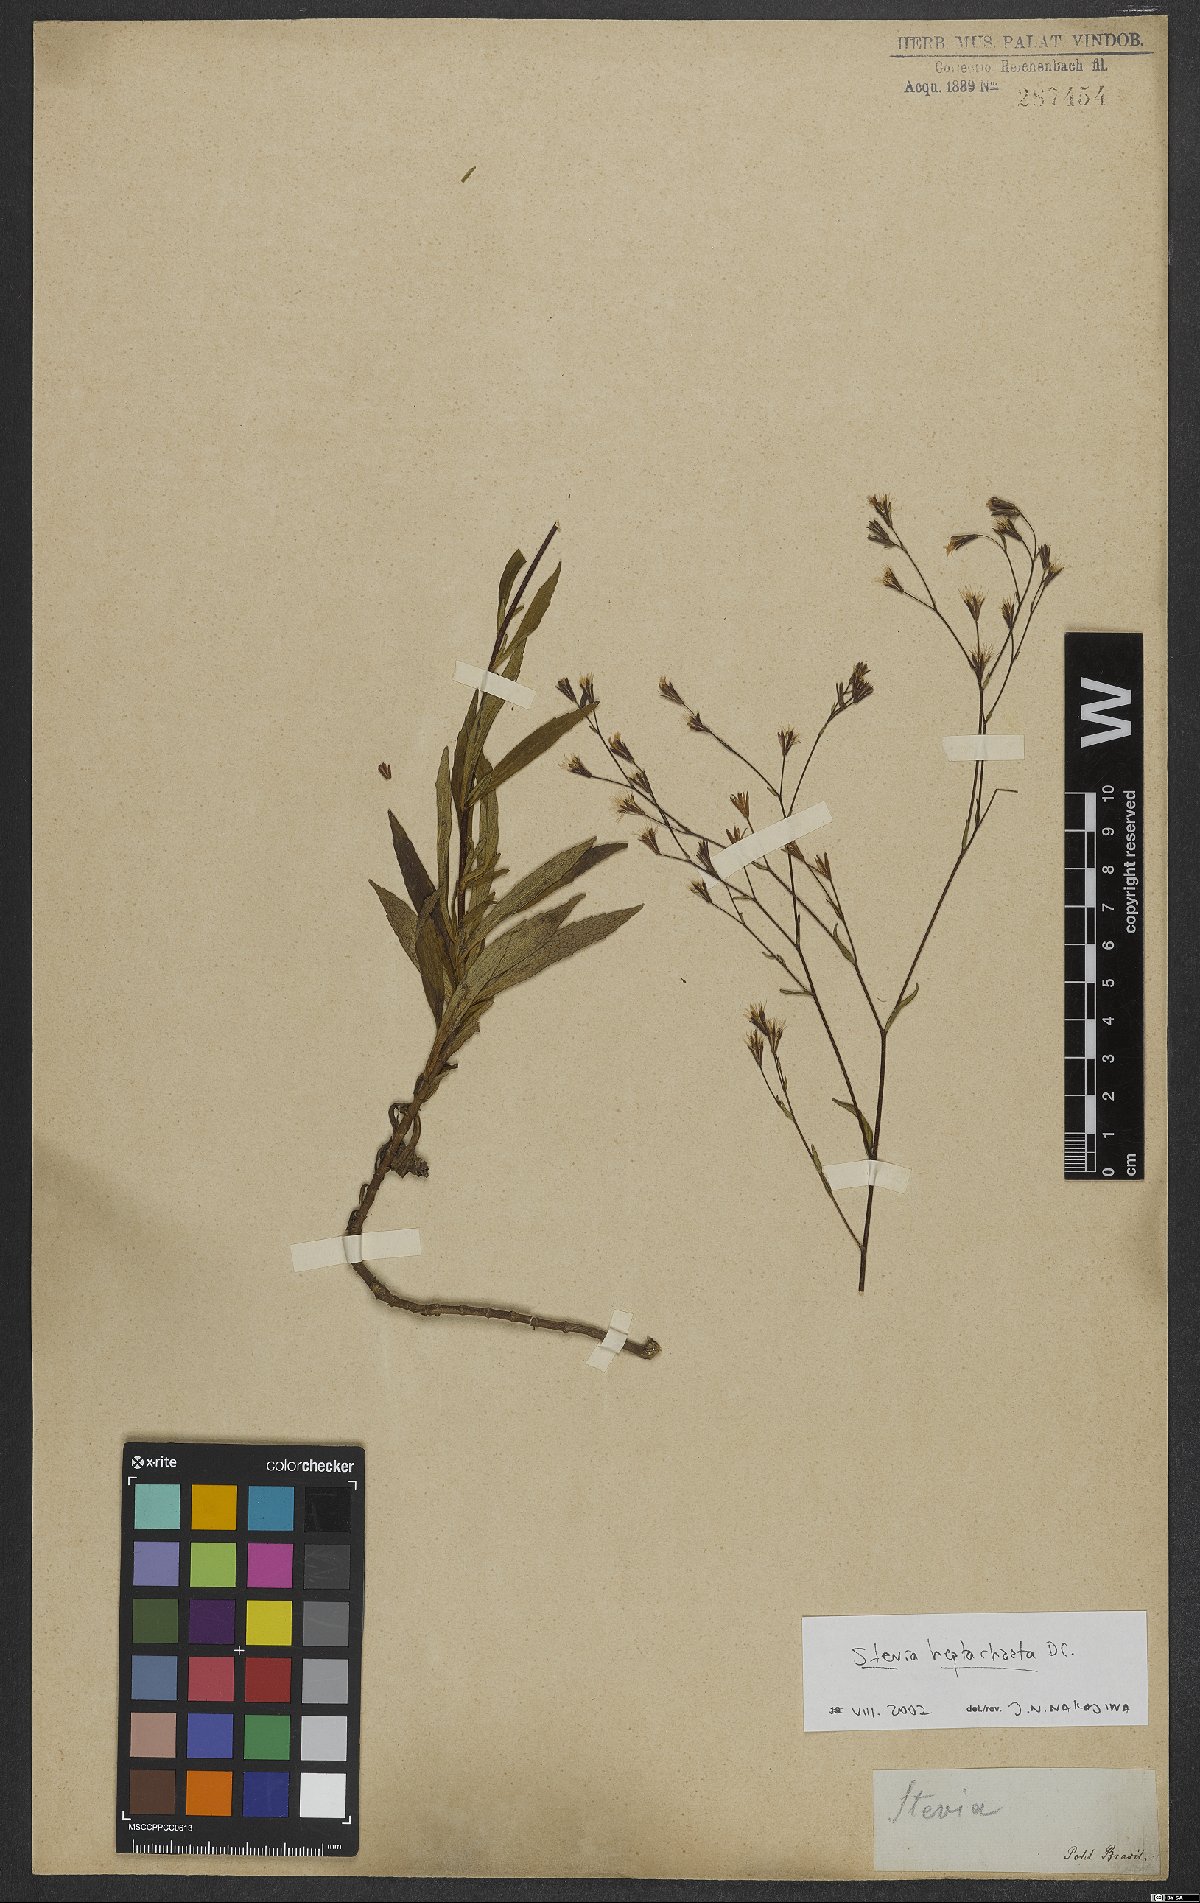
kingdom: Plantae
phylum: Tracheophyta
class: Magnoliopsida
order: Asterales
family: Asteraceae
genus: Stevia
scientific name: Stevia heptachaeta
